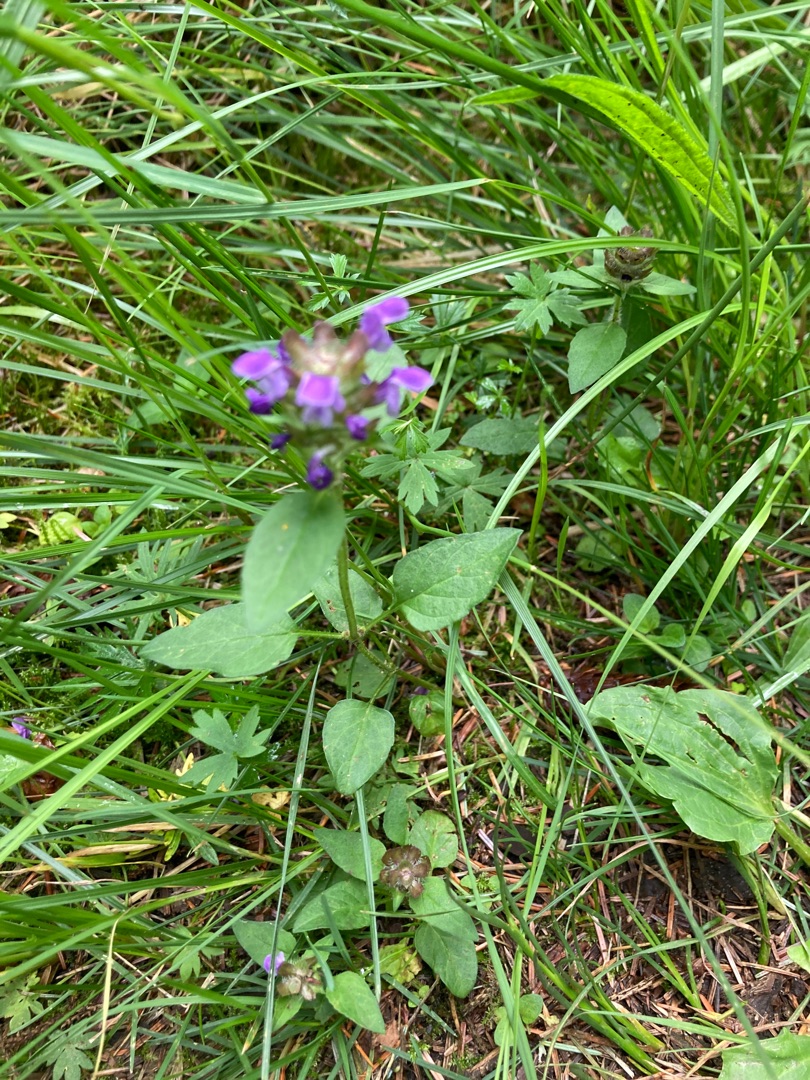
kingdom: Plantae
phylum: Tracheophyta
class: Magnoliopsida
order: Lamiales
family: Lamiaceae
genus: Prunella
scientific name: Prunella vulgaris
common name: Almindelig brunelle
